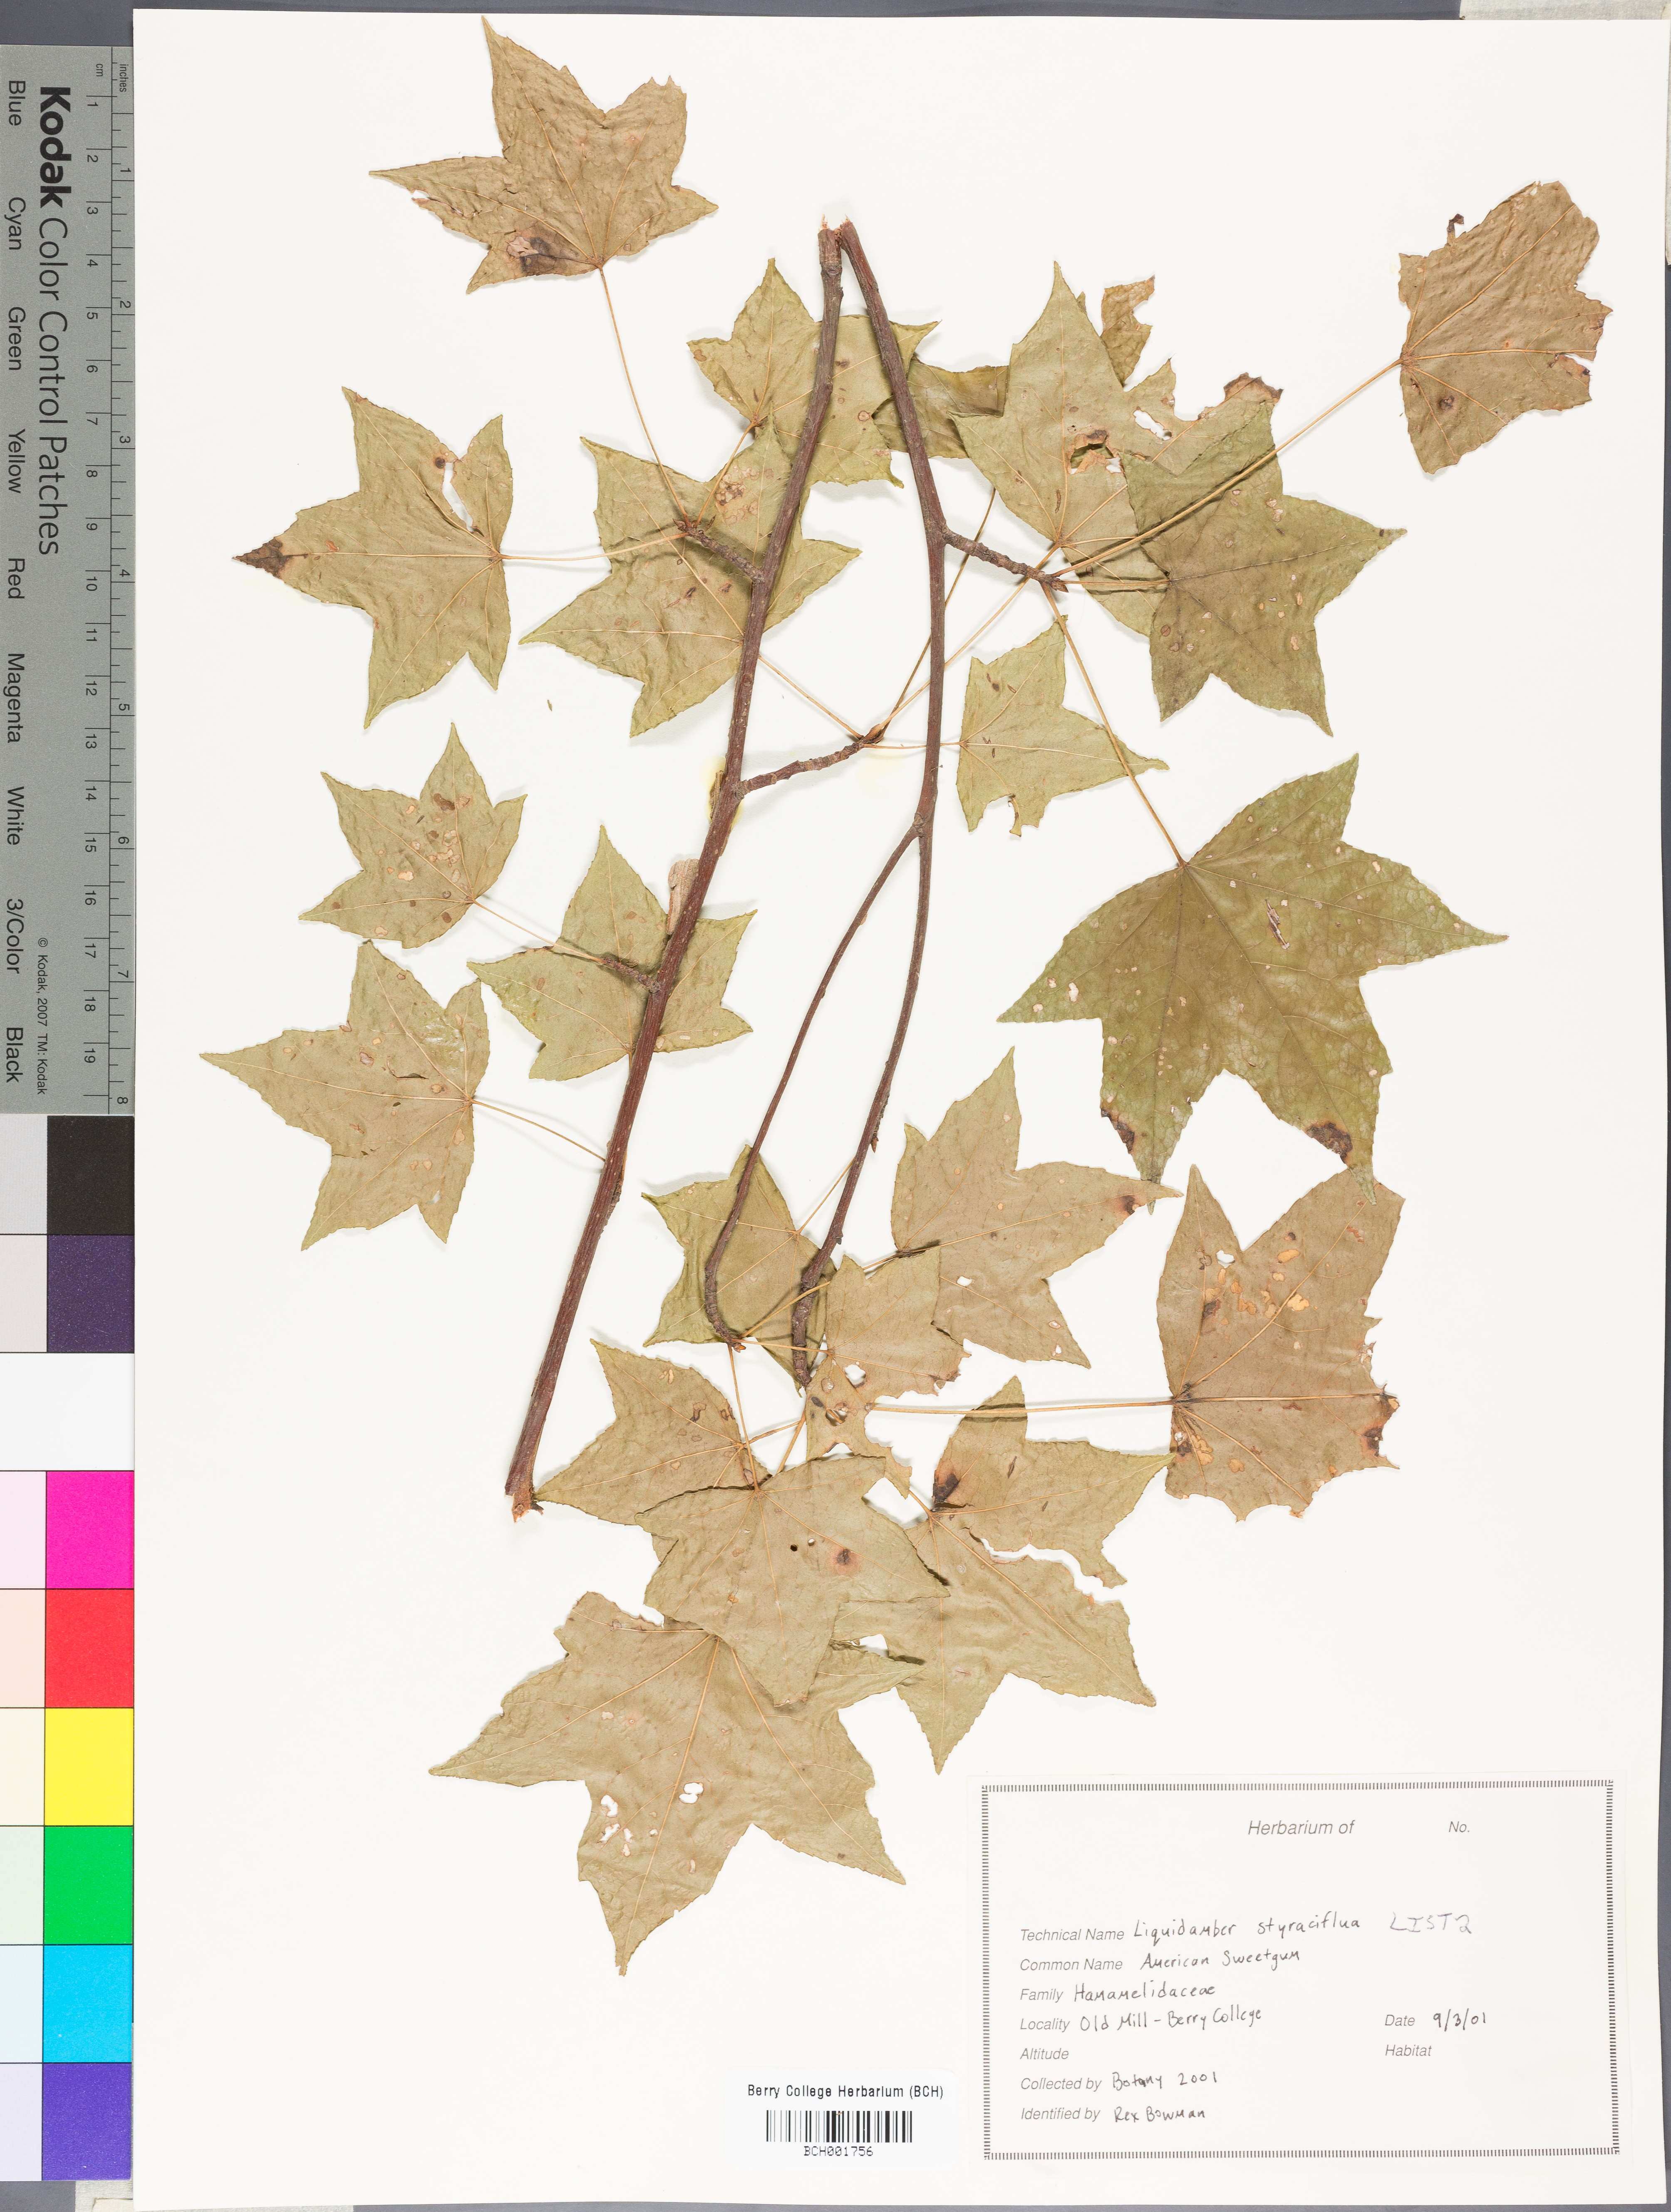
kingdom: Plantae
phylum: Tracheophyta
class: Magnoliopsida
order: Saxifragales
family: Altingiaceae
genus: Liquidambar
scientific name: Liquidambar styraciflua
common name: Sweet gum
